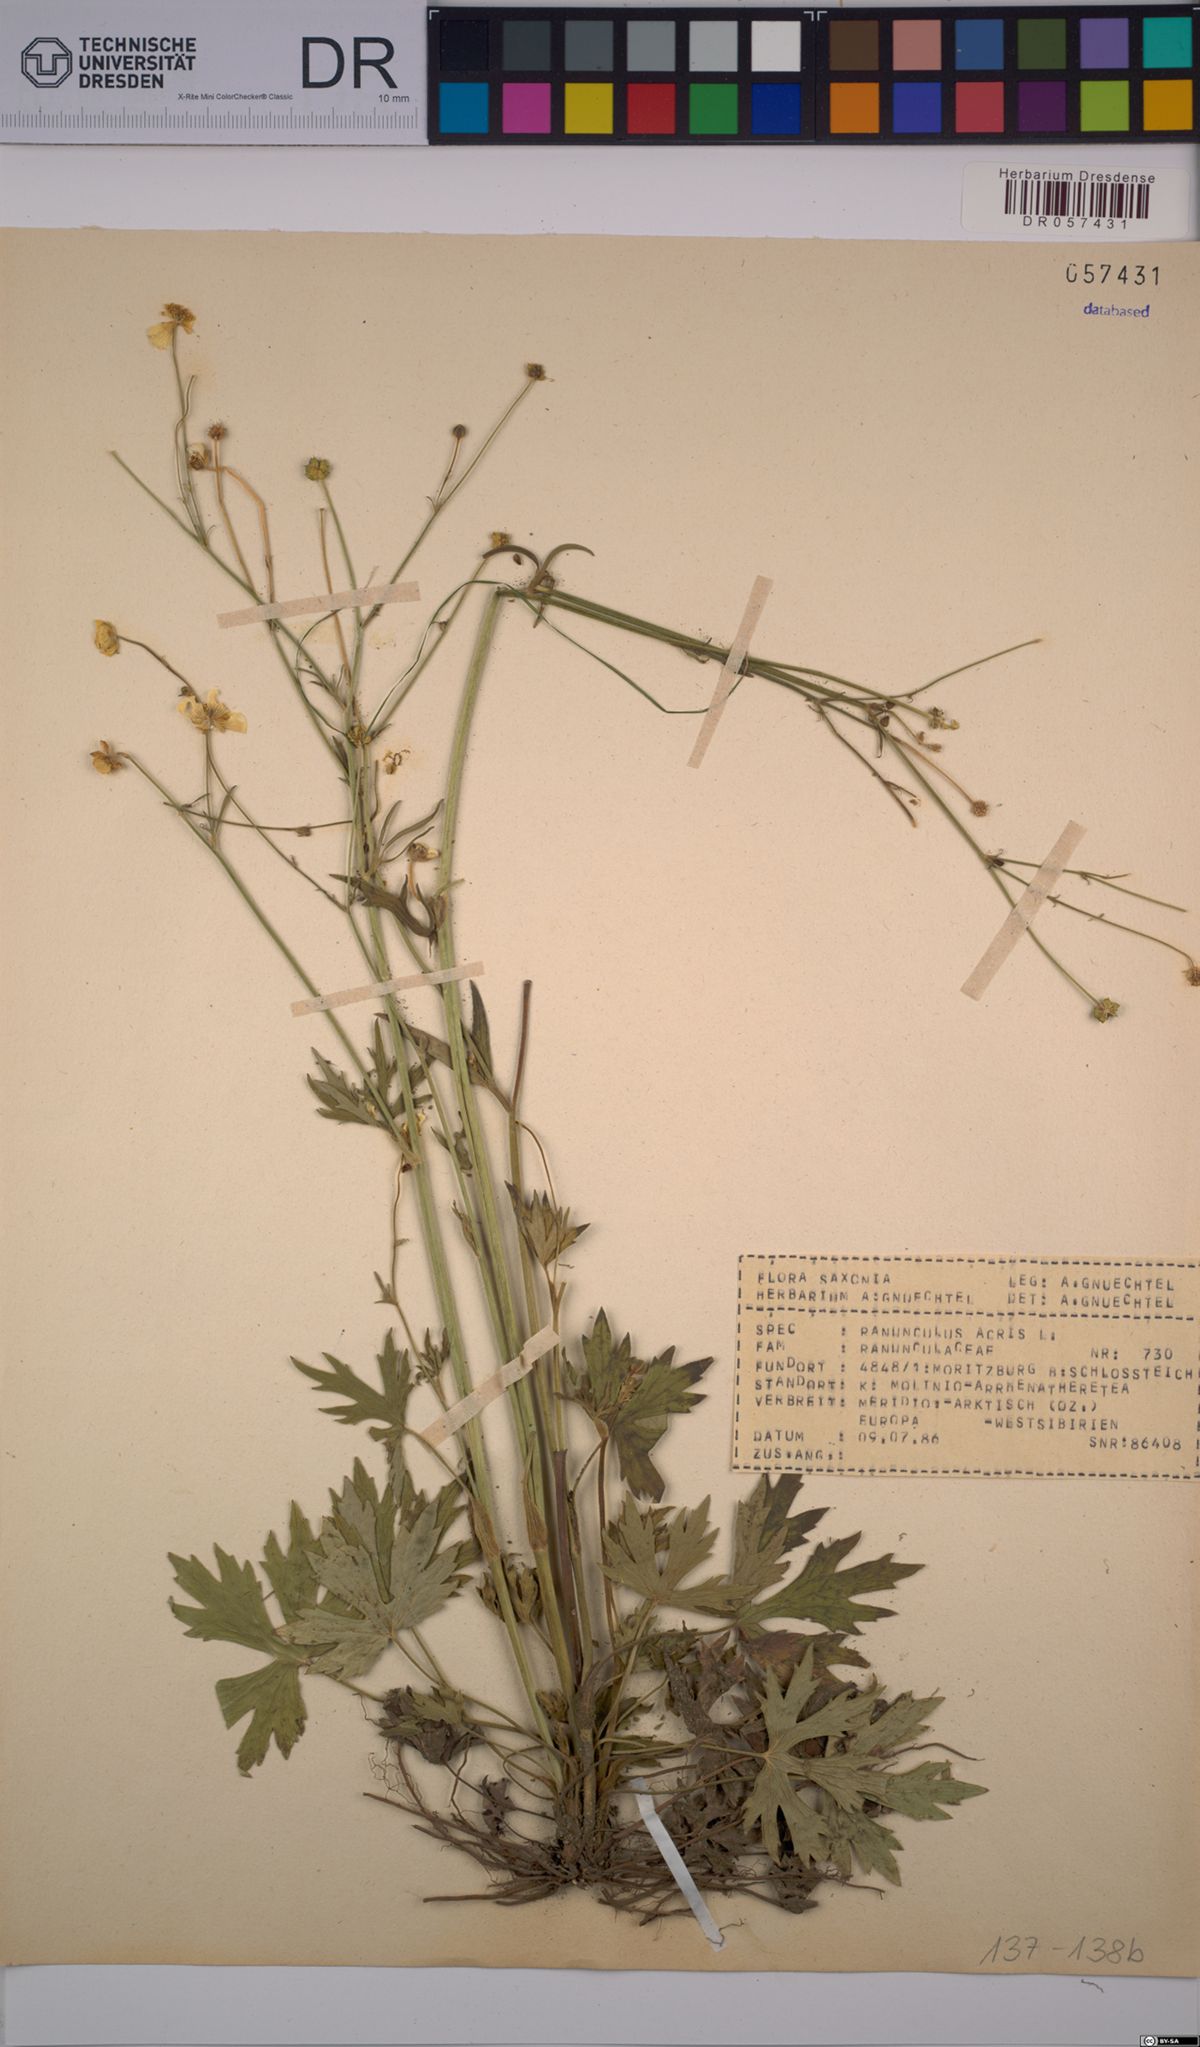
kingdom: Plantae
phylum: Tracheophyta
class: Magnoliopsida
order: Ranunculales
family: Ranunculaceae
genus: Ranunculus
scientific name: Ranunculus acris
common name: Meadow buttercup
